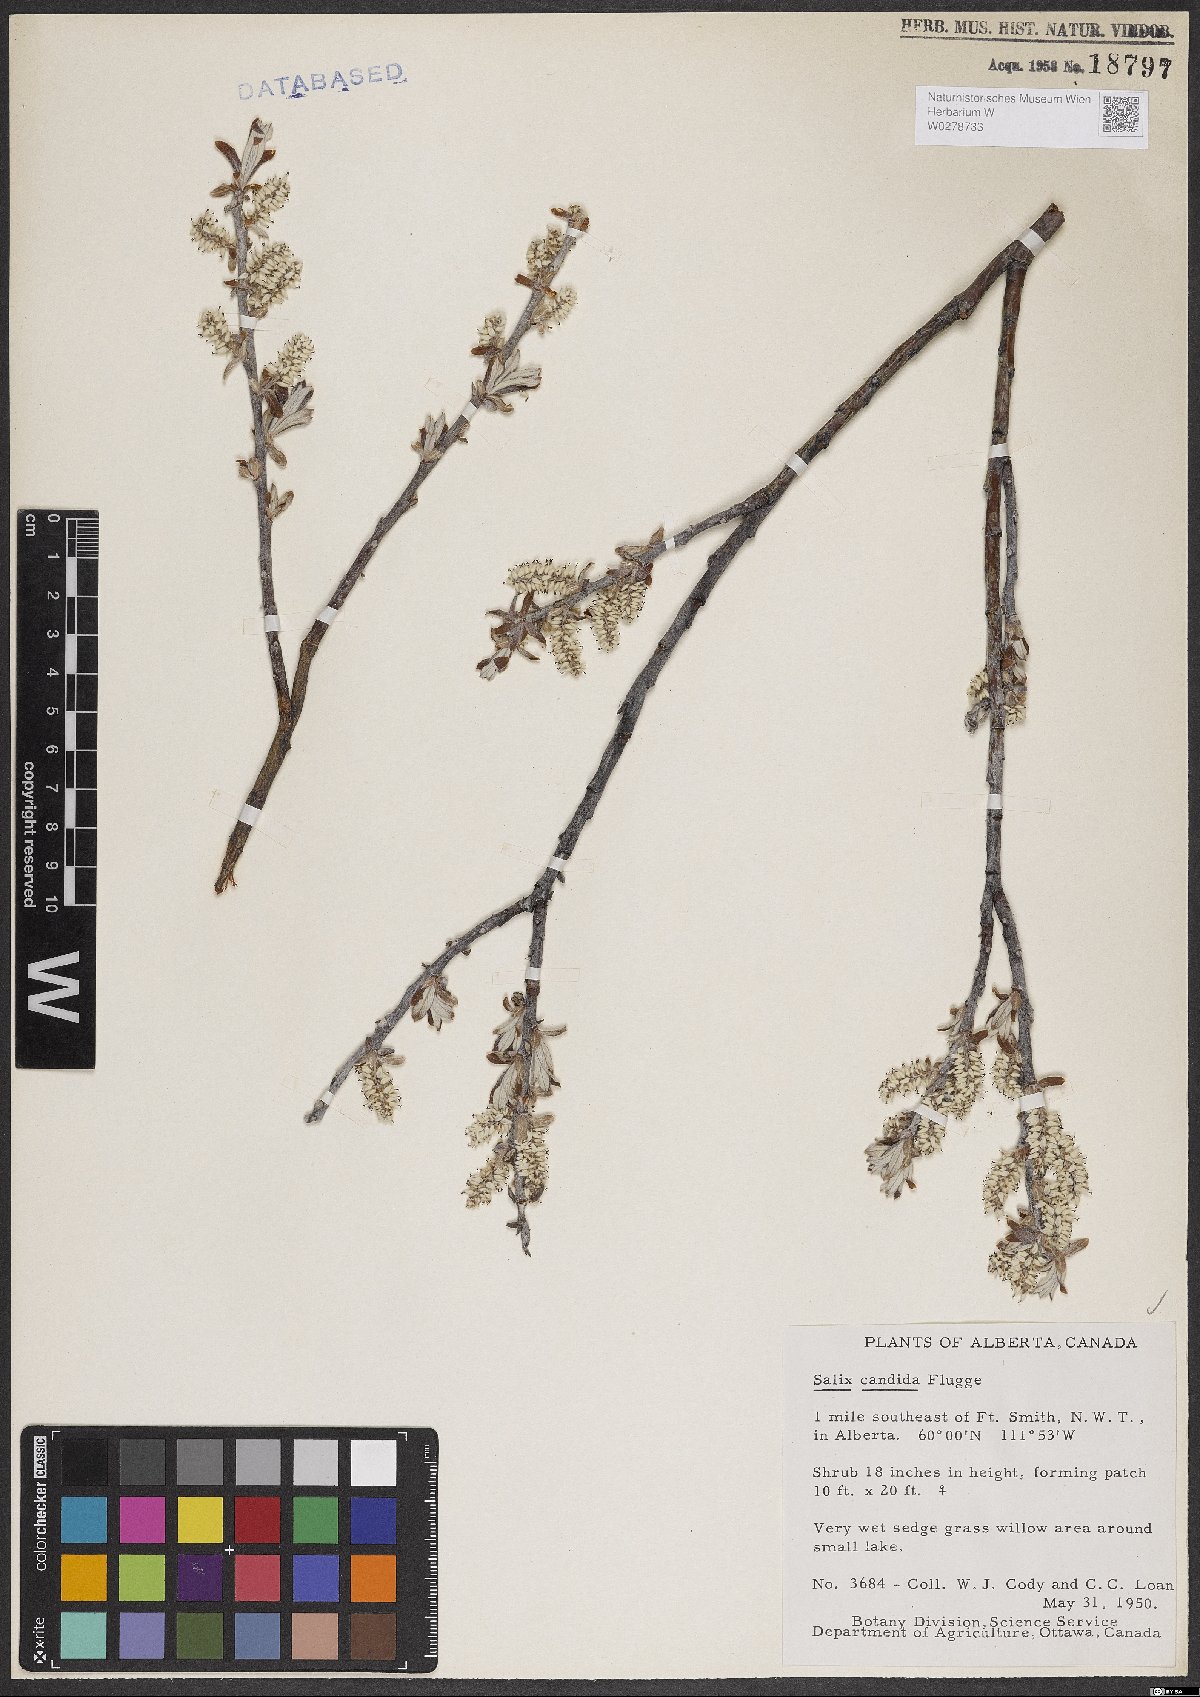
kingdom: Plantae
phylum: Tracheophyta
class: Magnoliopsida
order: Malpighiales
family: Salicaceae
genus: Salix
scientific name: Salix candida
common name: Hoary willow
